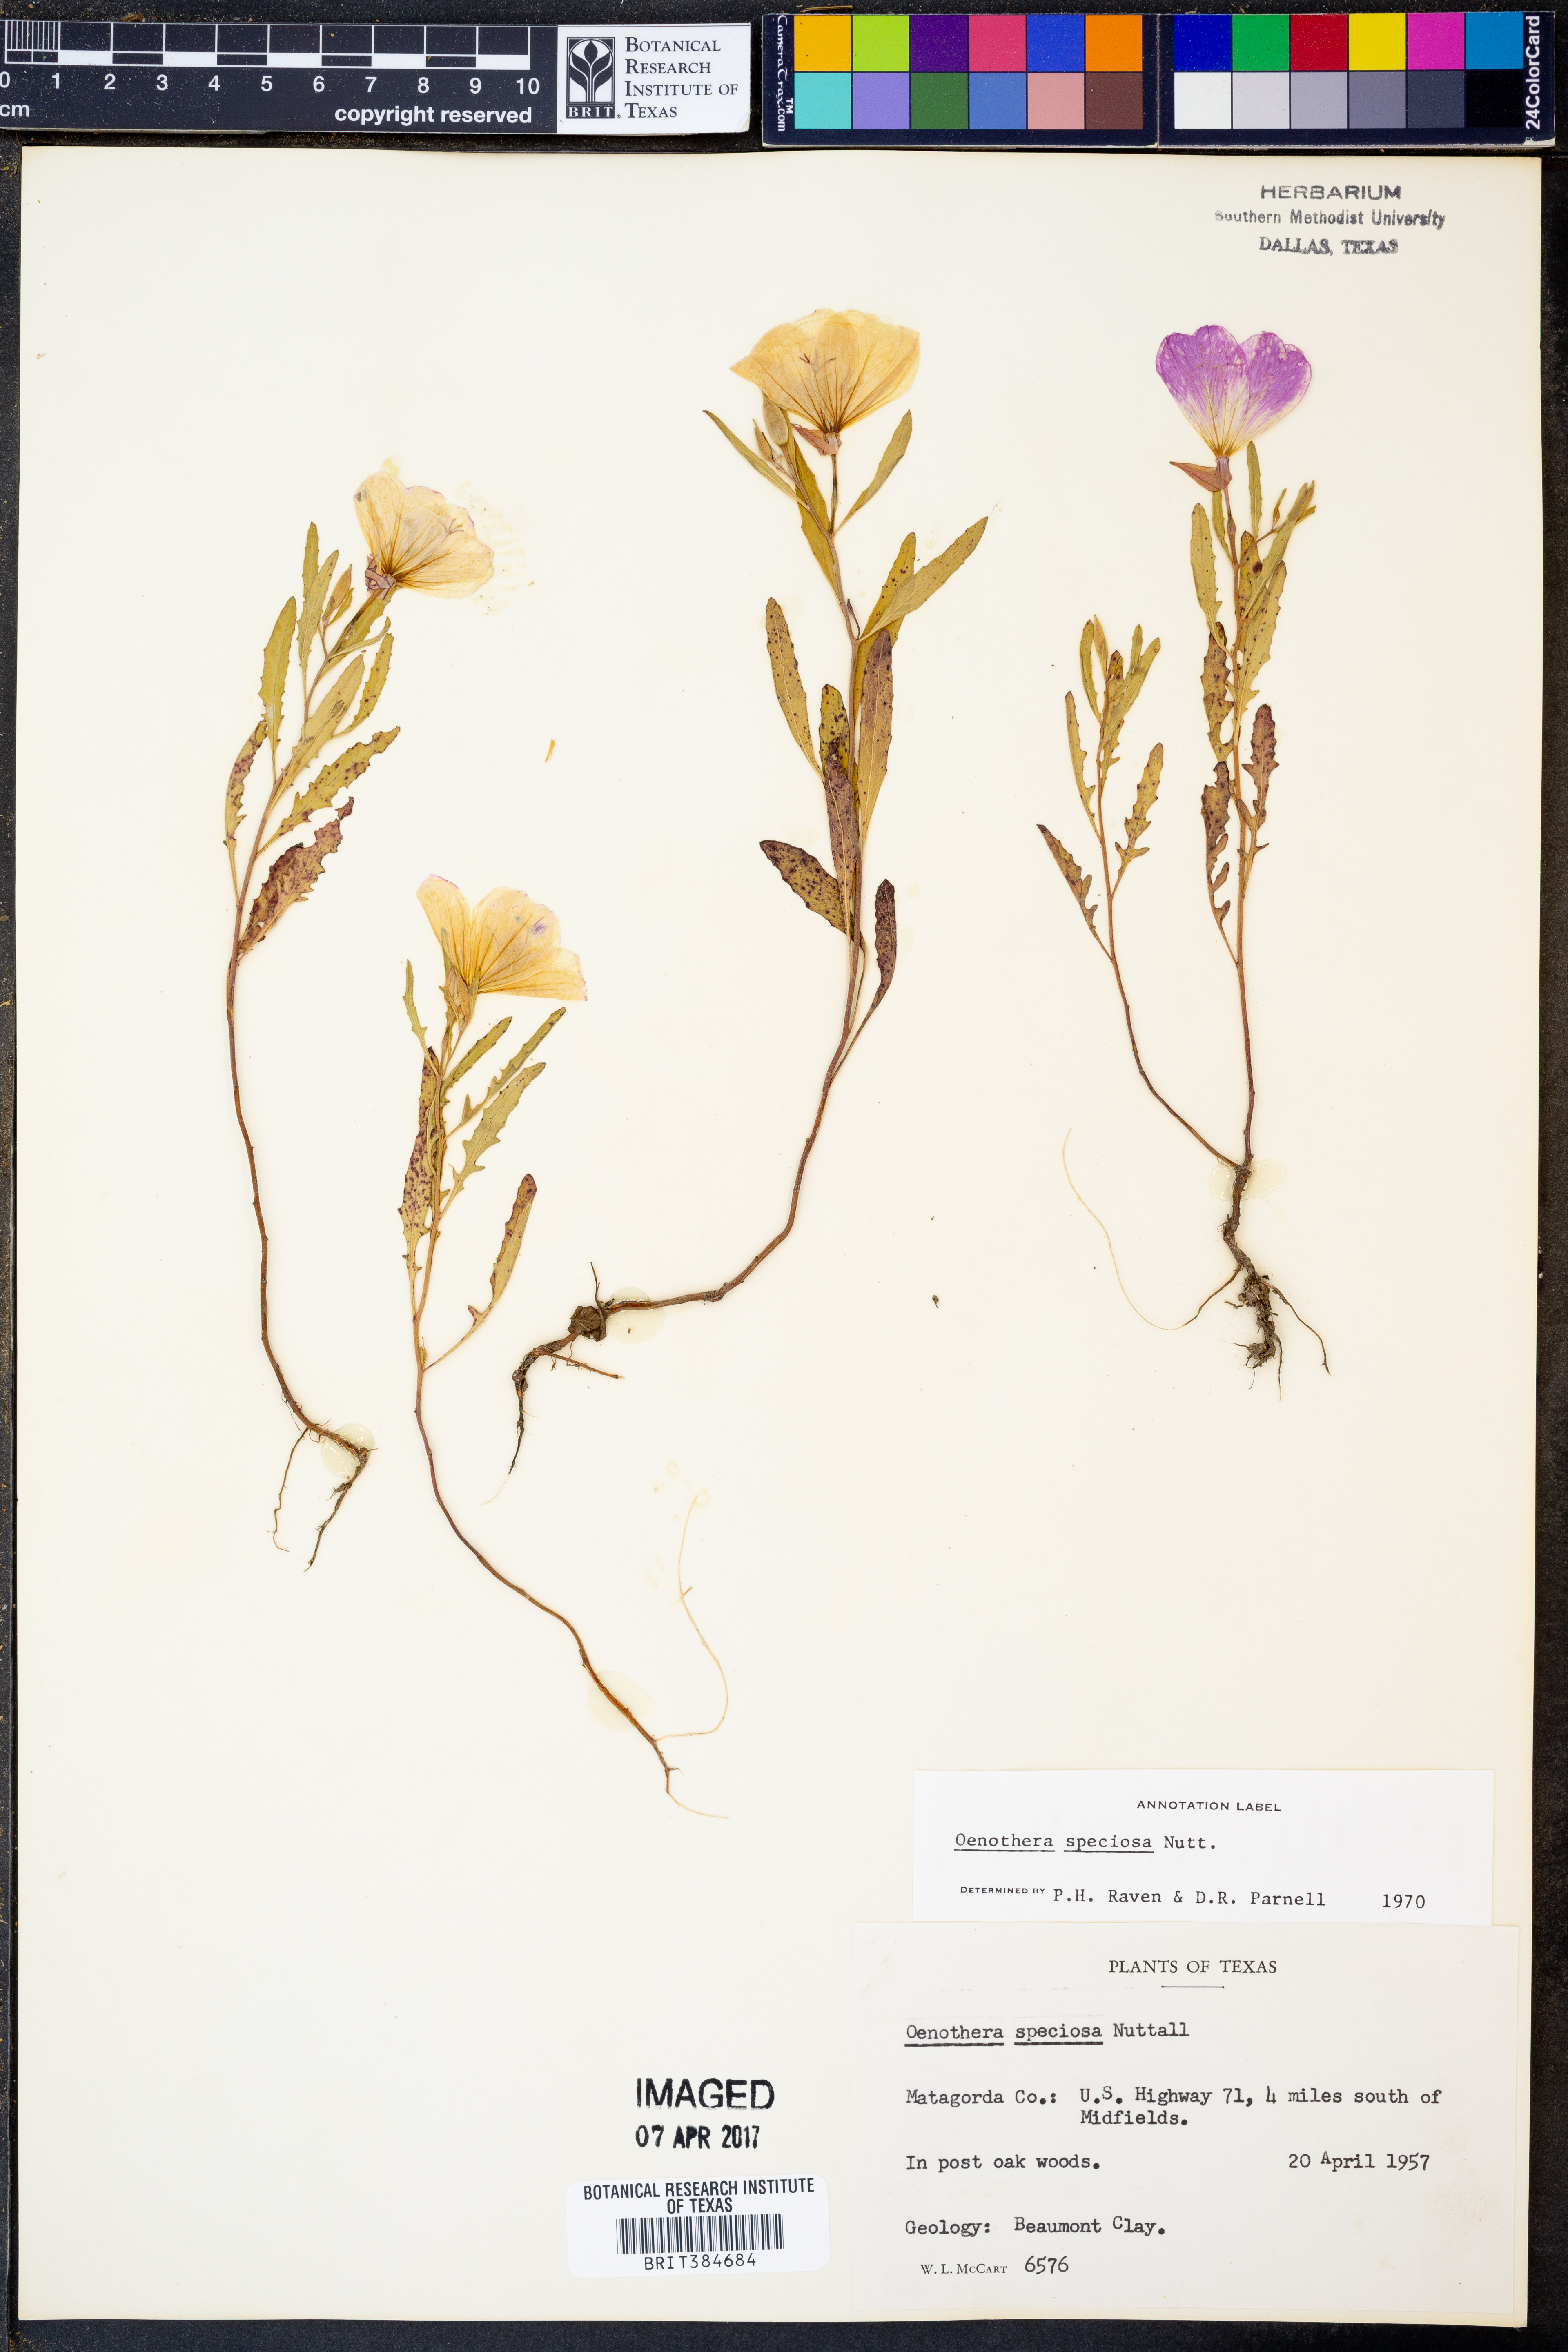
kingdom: Plantae
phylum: Tracheophyta
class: Magnoliopsida
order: Myrtales
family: Onagraceae
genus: Oenothera
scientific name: Oenothera speciosa
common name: White evening-primrose
